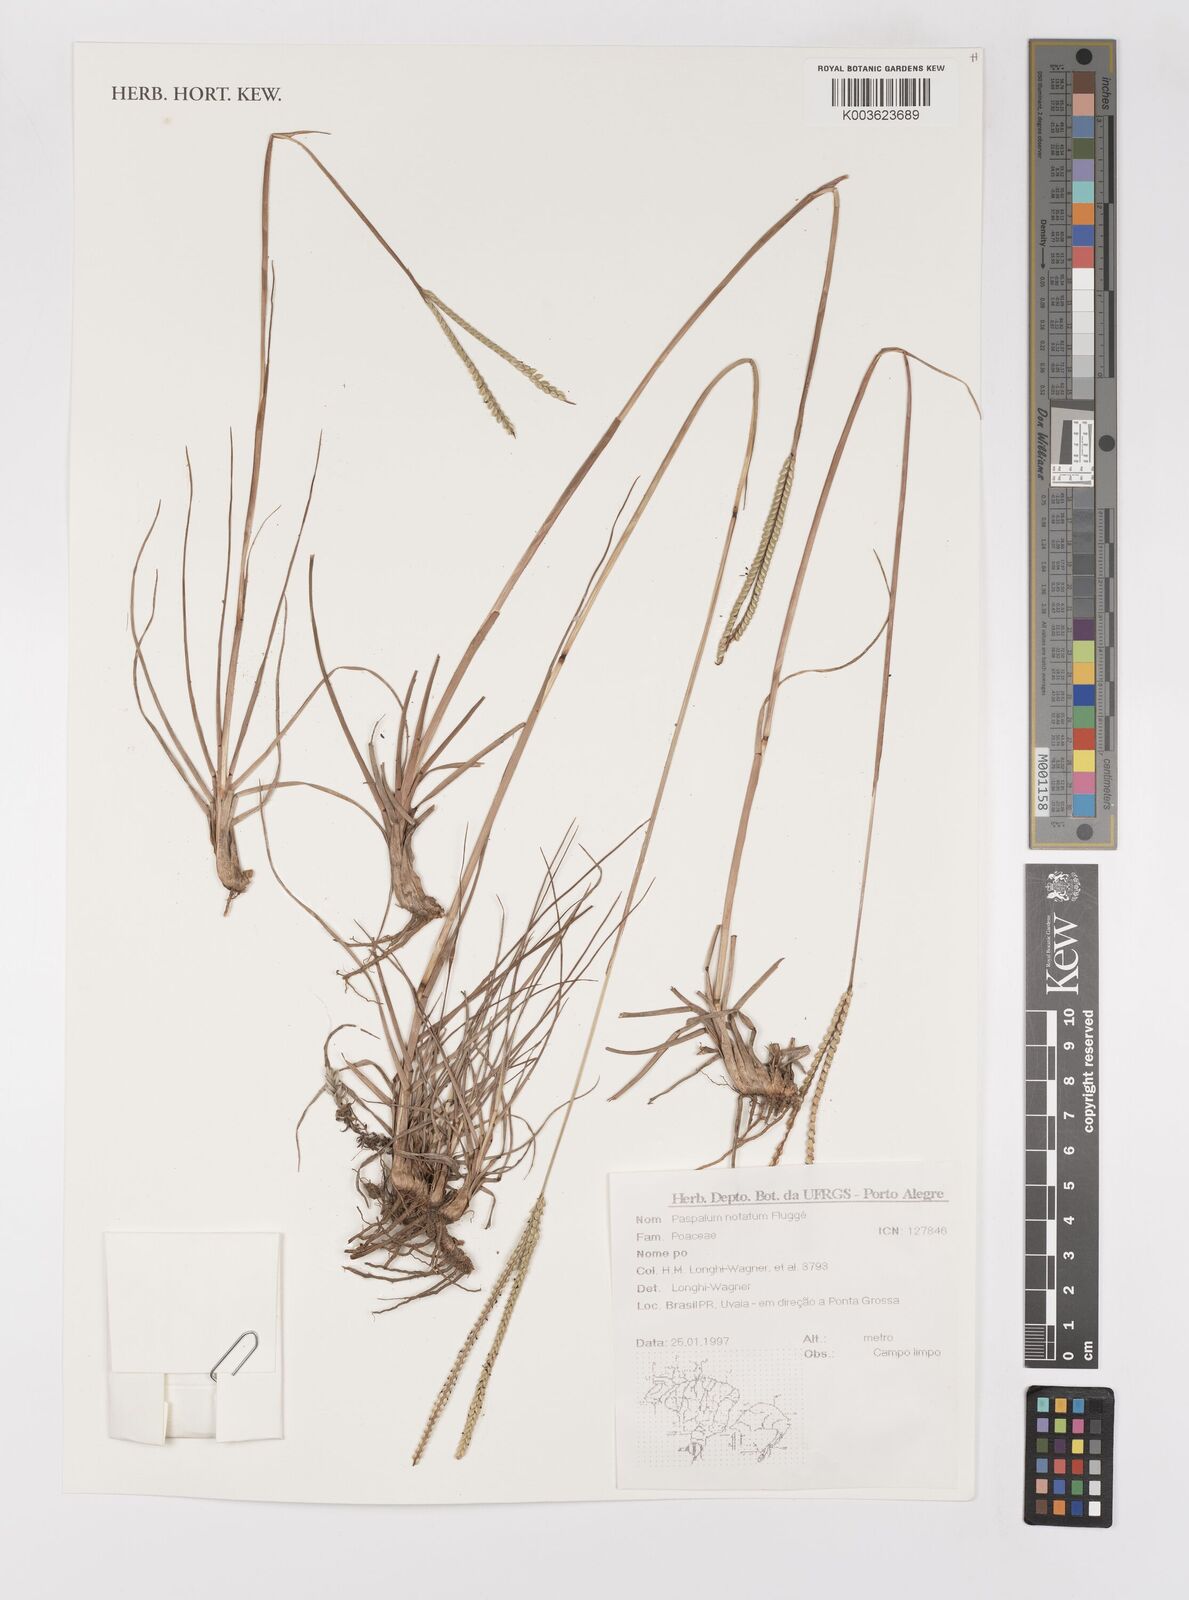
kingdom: Plantae
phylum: Tracheophyta
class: Liliopsida
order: Poales
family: Poaceae
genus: Paspalum
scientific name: Paspalum notatum
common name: Bahiagrass
